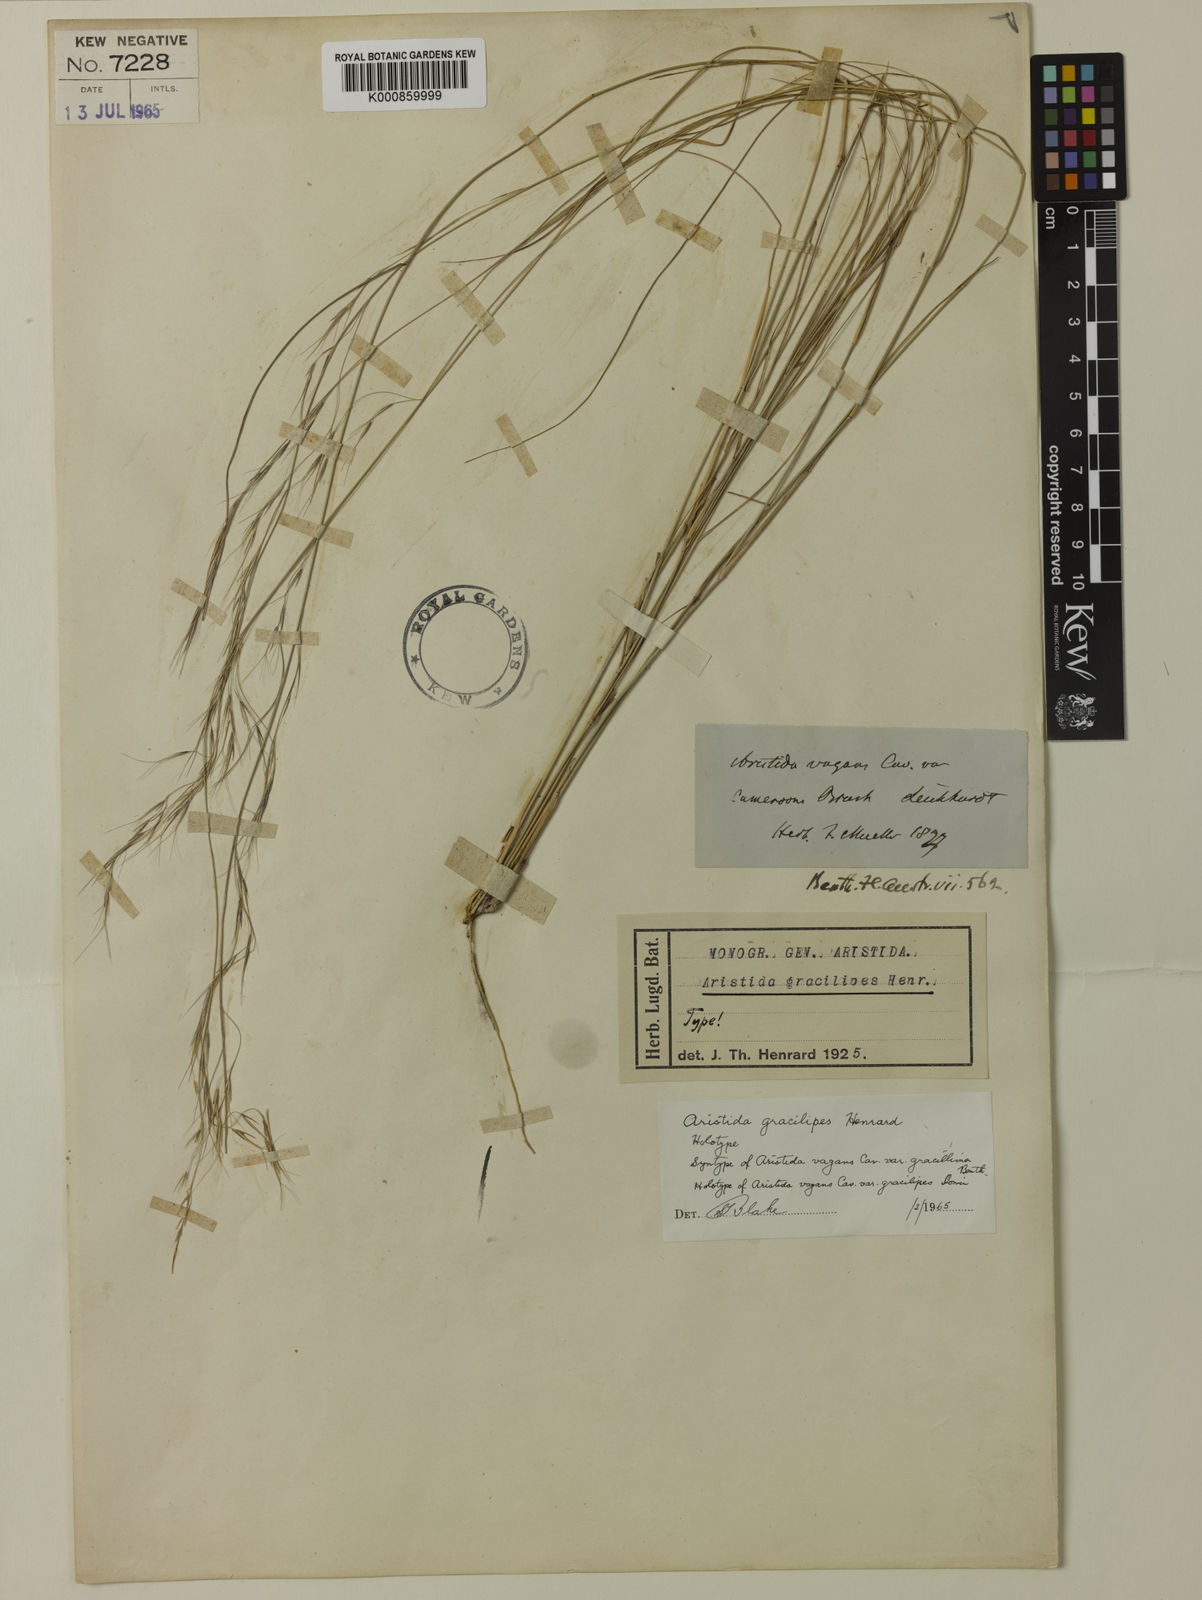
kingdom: Plantae
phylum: Tracheophyta
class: Liliopsida
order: Poales
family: Poaceae
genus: Aristida
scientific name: Aristida gracilipes
